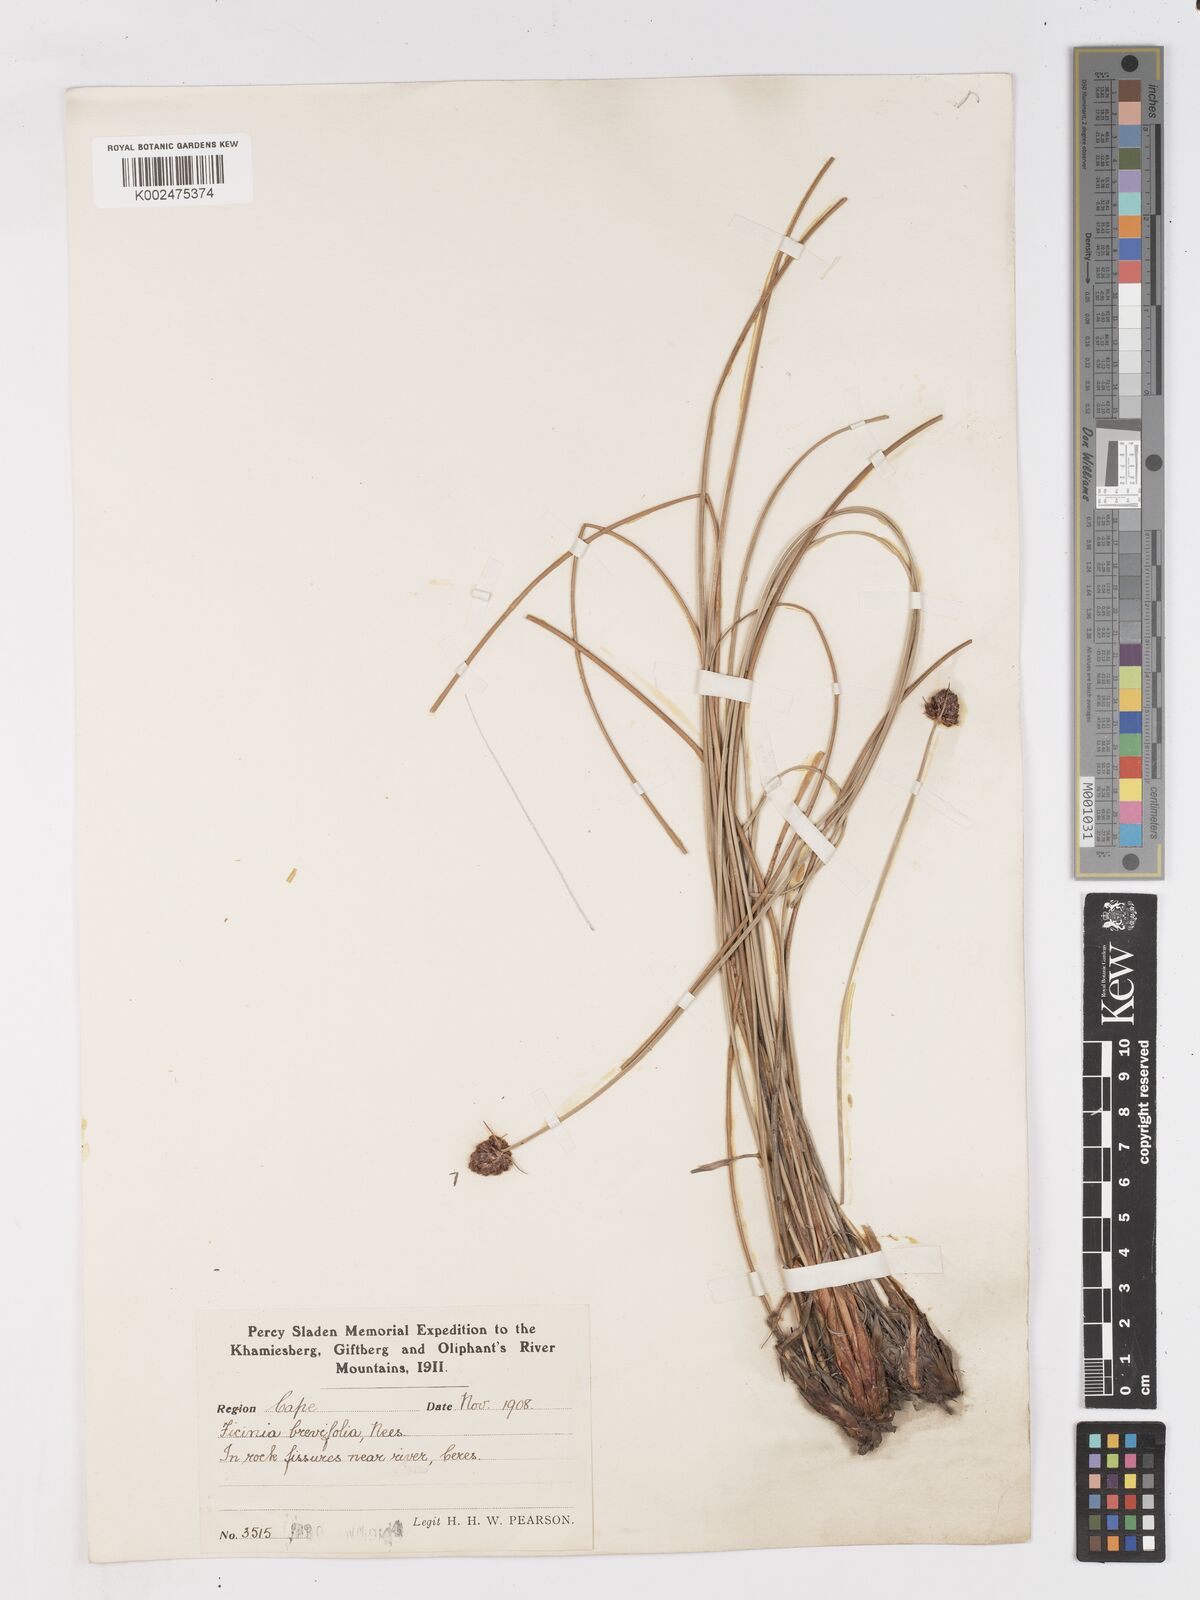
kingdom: Plantae
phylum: Tracheophyta
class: Liliopsida
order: Poales
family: Cyperaceae
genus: Ficinia
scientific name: Ficinia brevifolia
